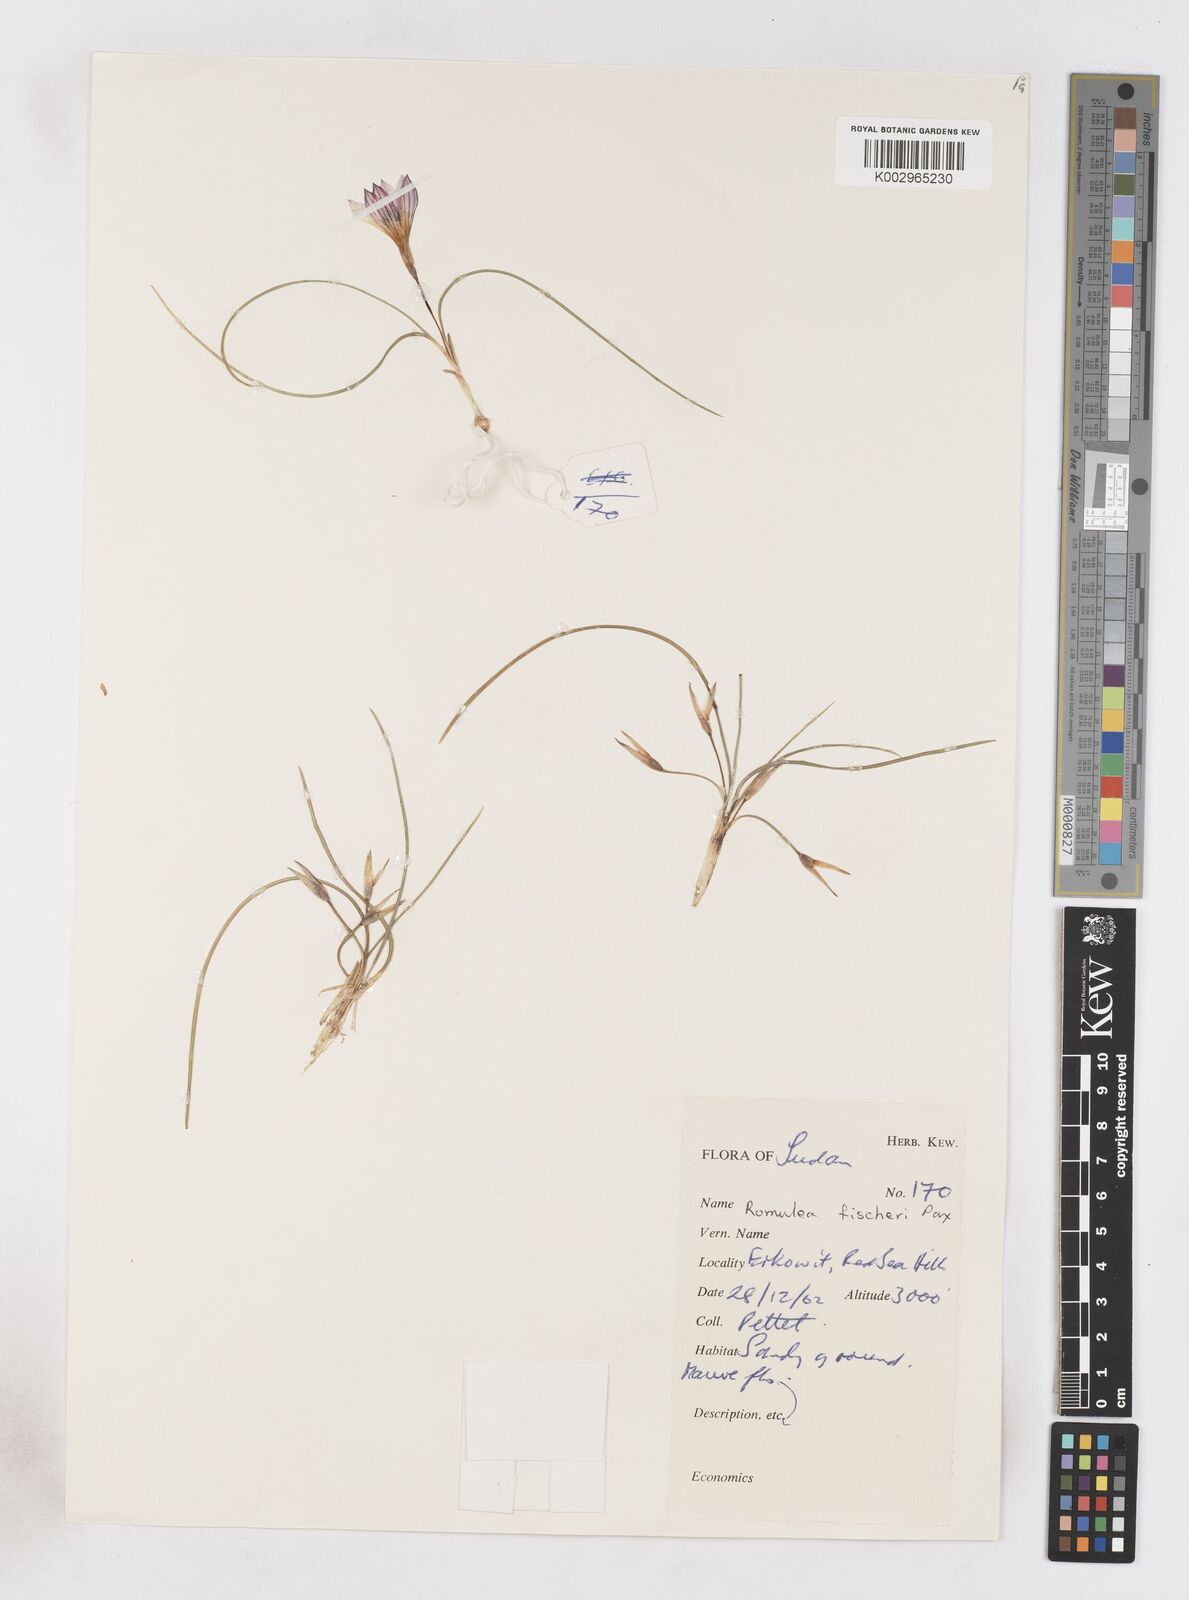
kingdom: Plantae
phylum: Tracheophyta
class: Liliopsida
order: Asparagales
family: Iridaceae
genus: Romulea
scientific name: Romulea fischeri
